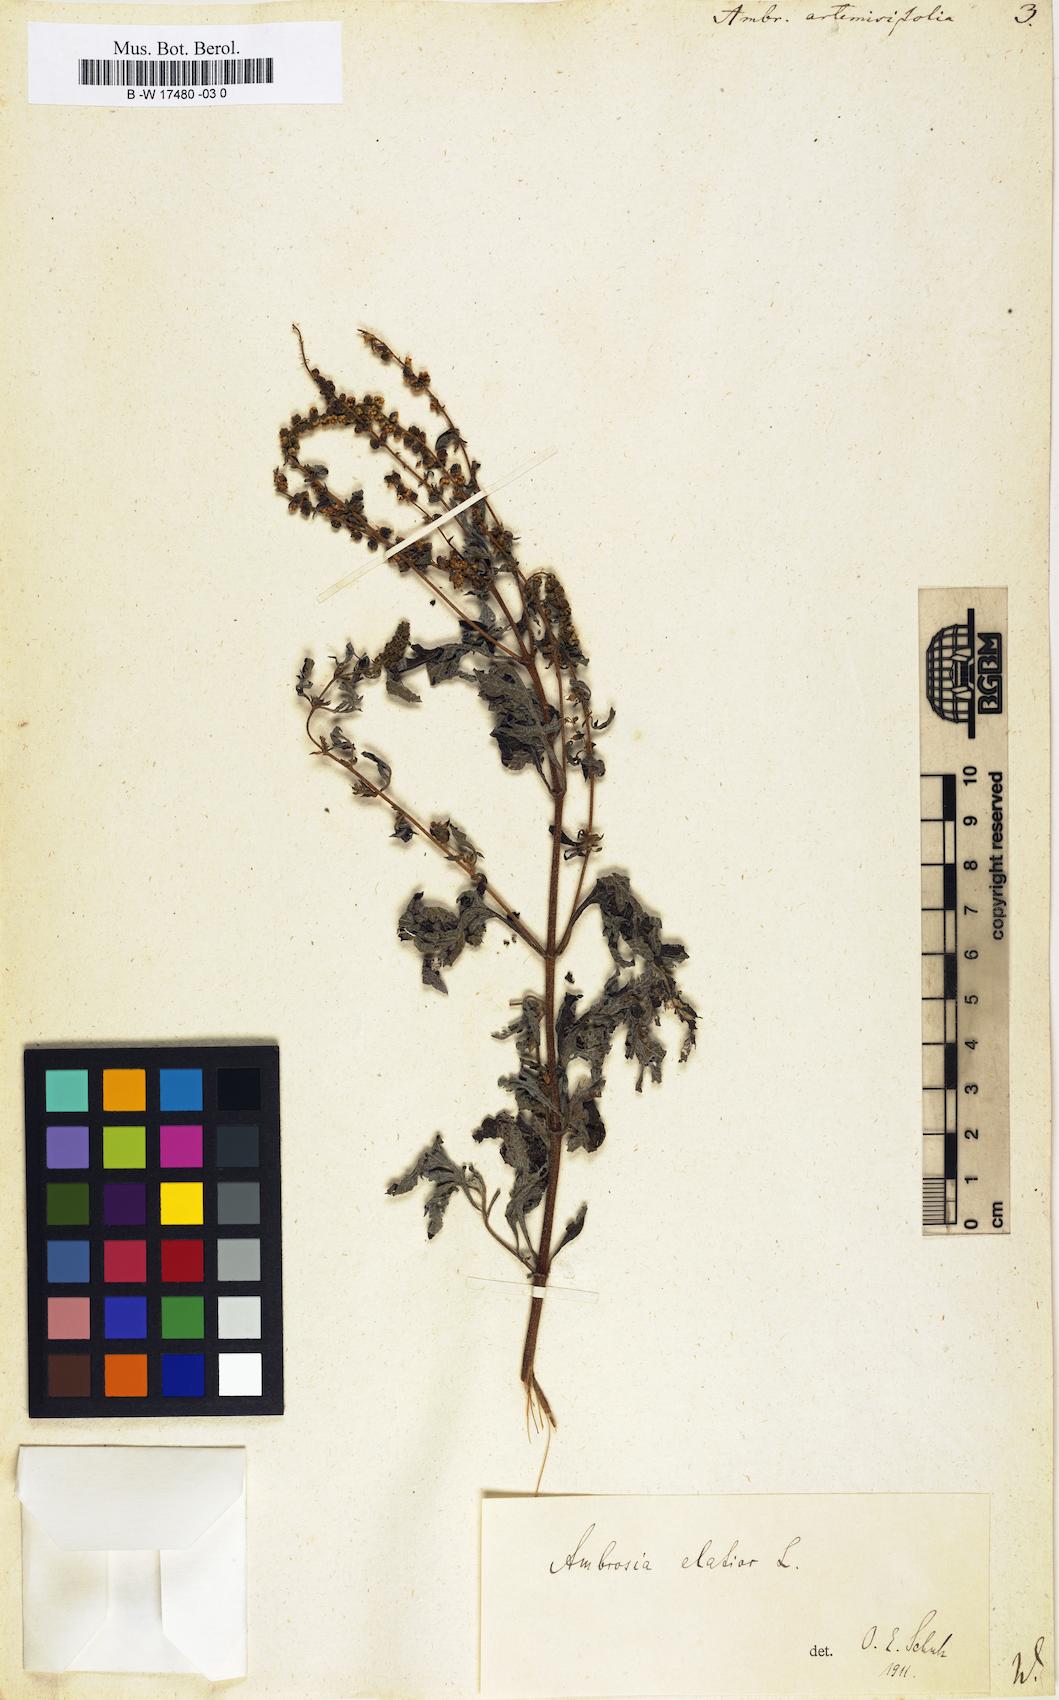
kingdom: Plantae
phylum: Tracheophyta
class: Magnoliopsida
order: Asterales
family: Asteraceae
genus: Ambrosia
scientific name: Ambrosia artemisiifolia
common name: Annual ragweed
